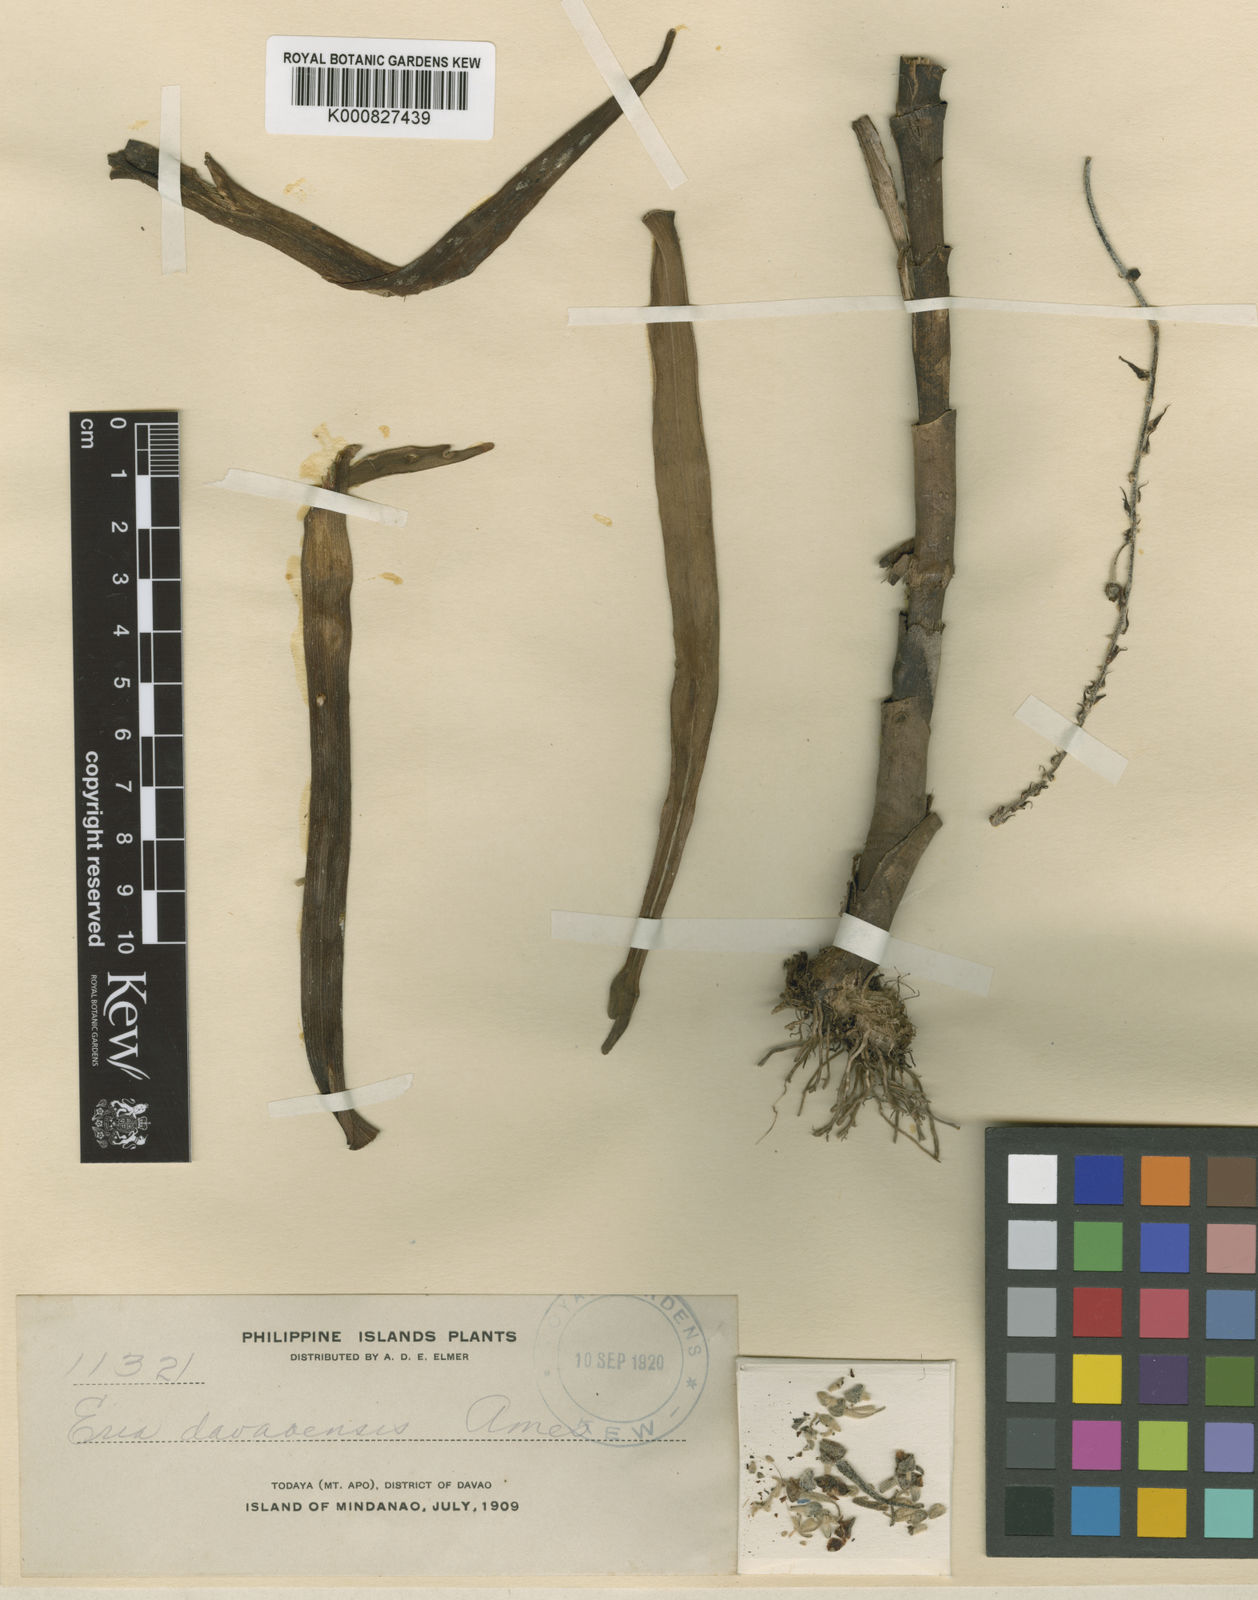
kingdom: Plantae
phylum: Tracheophyta
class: Liliopsida
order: Asparagales
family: Orchidaceae
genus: Mycaranthes
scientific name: Mycaranthes davaensis
